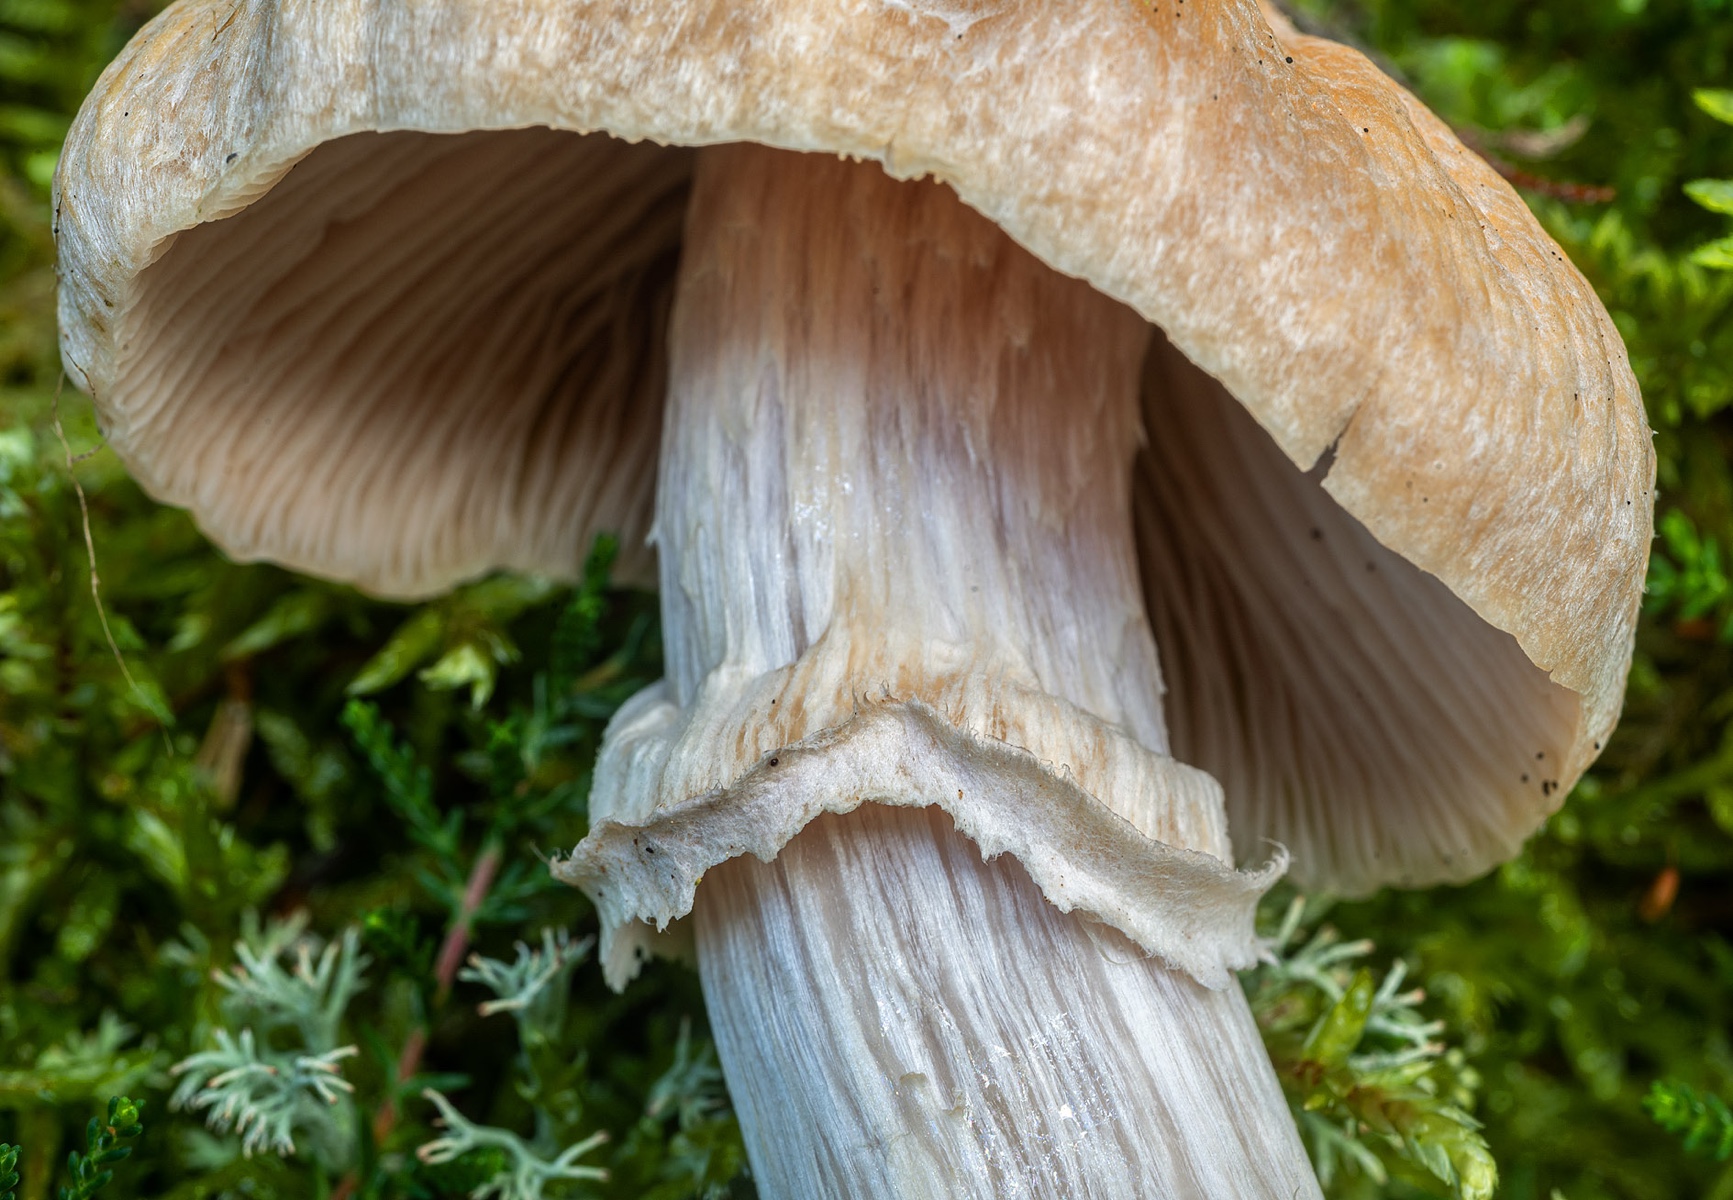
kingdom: Fungi
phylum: Basidiomycota
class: Agaricomycetes
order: Agaricales
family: Cortinariaceae
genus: Cortinarius
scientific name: Cortinarius caperatus
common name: klidhat
